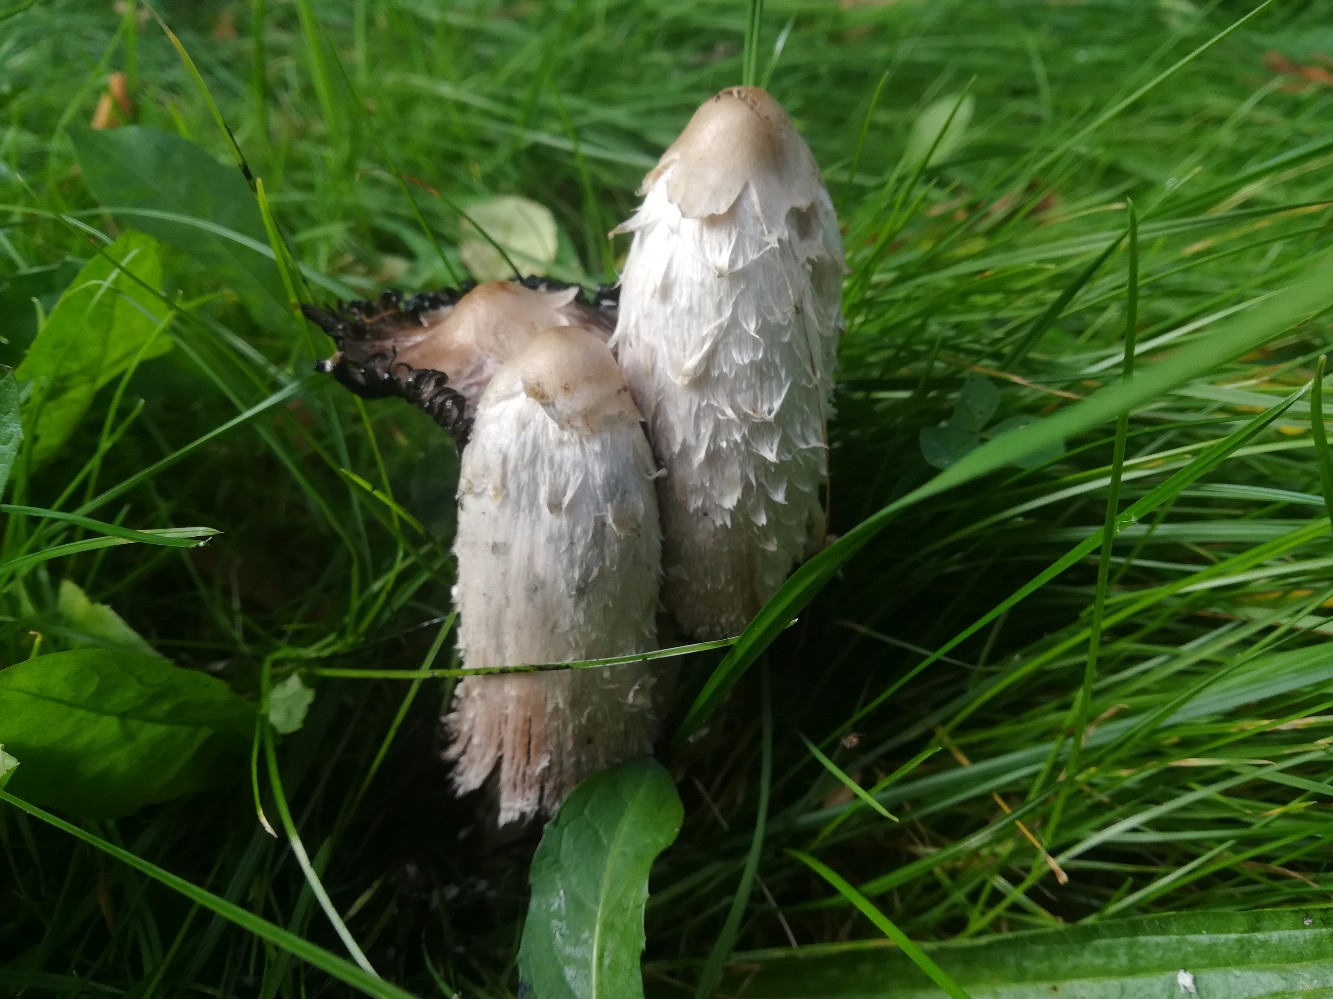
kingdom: Fungi
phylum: Basidiomycota
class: Agaricomycetes
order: Agaricales
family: Agaricaceae
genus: Coprinus
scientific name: Coprinus comatus
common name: stor parykhat
